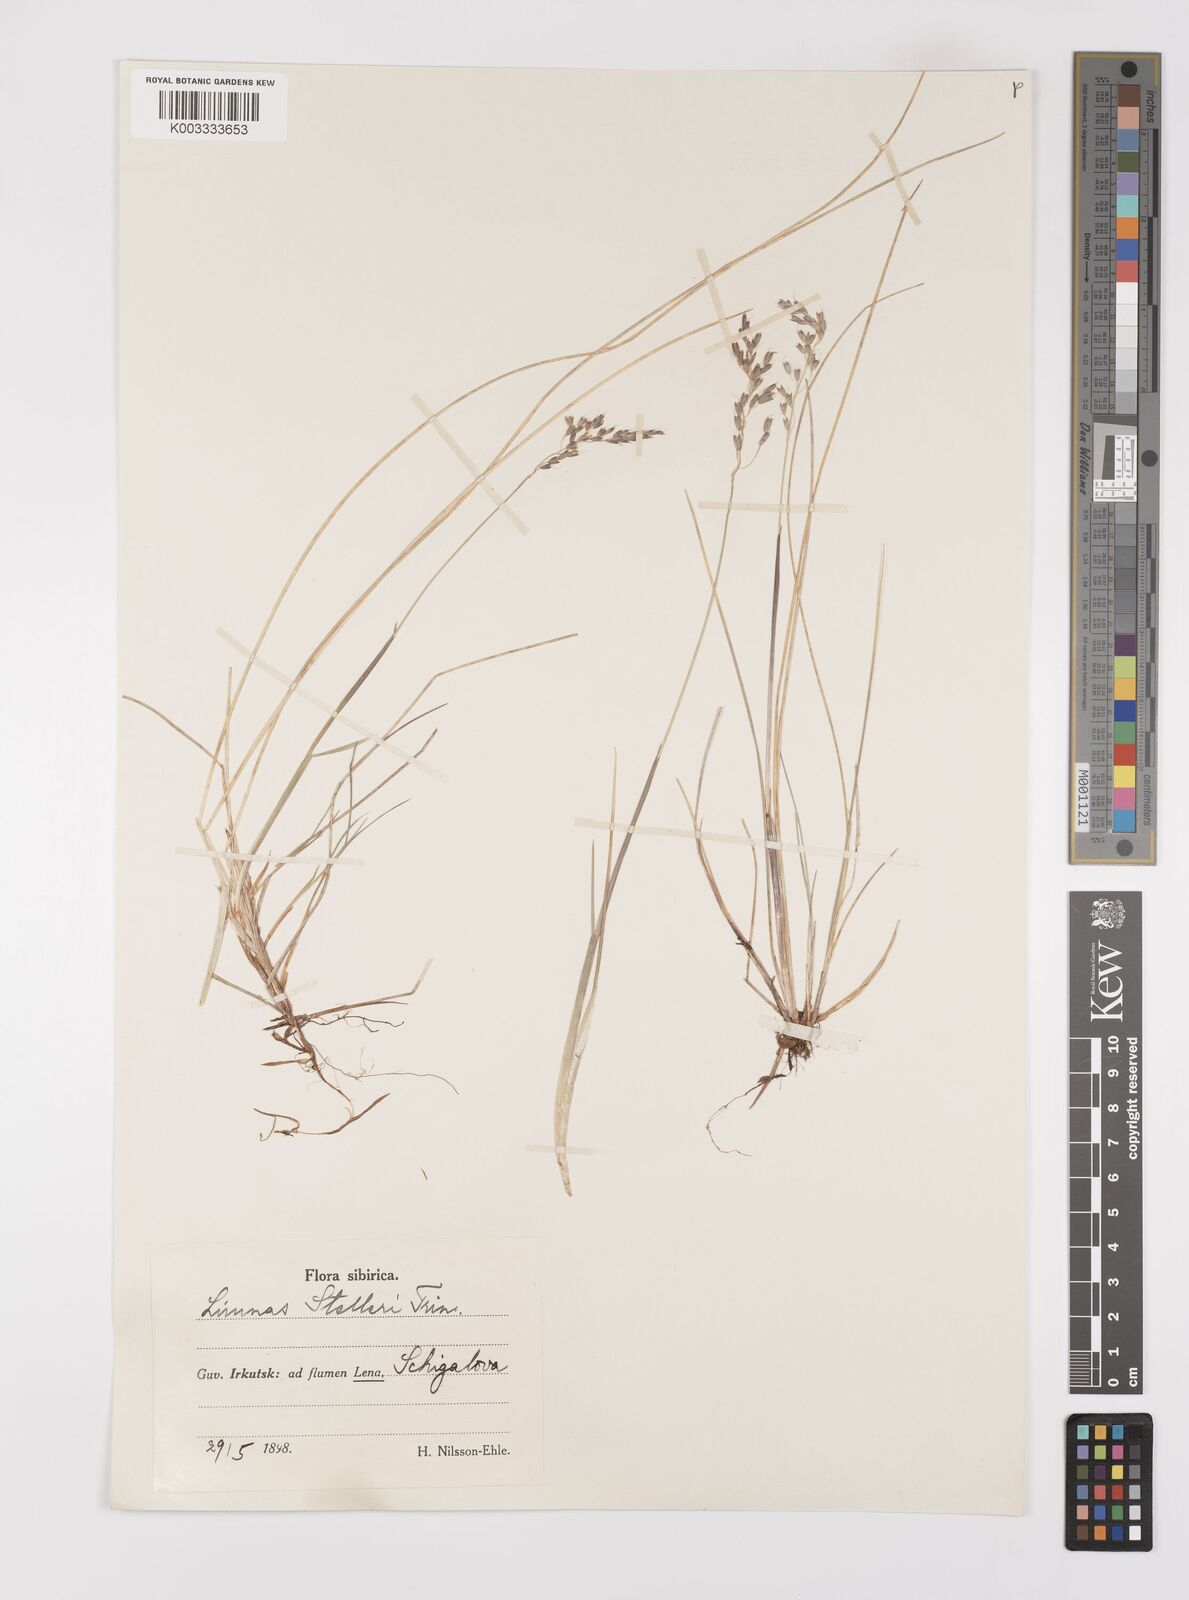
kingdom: Plantae
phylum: Tracheophyta
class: Liliopsida
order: Poales
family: Poaceae
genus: Limnas
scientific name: Limnas stelleri
